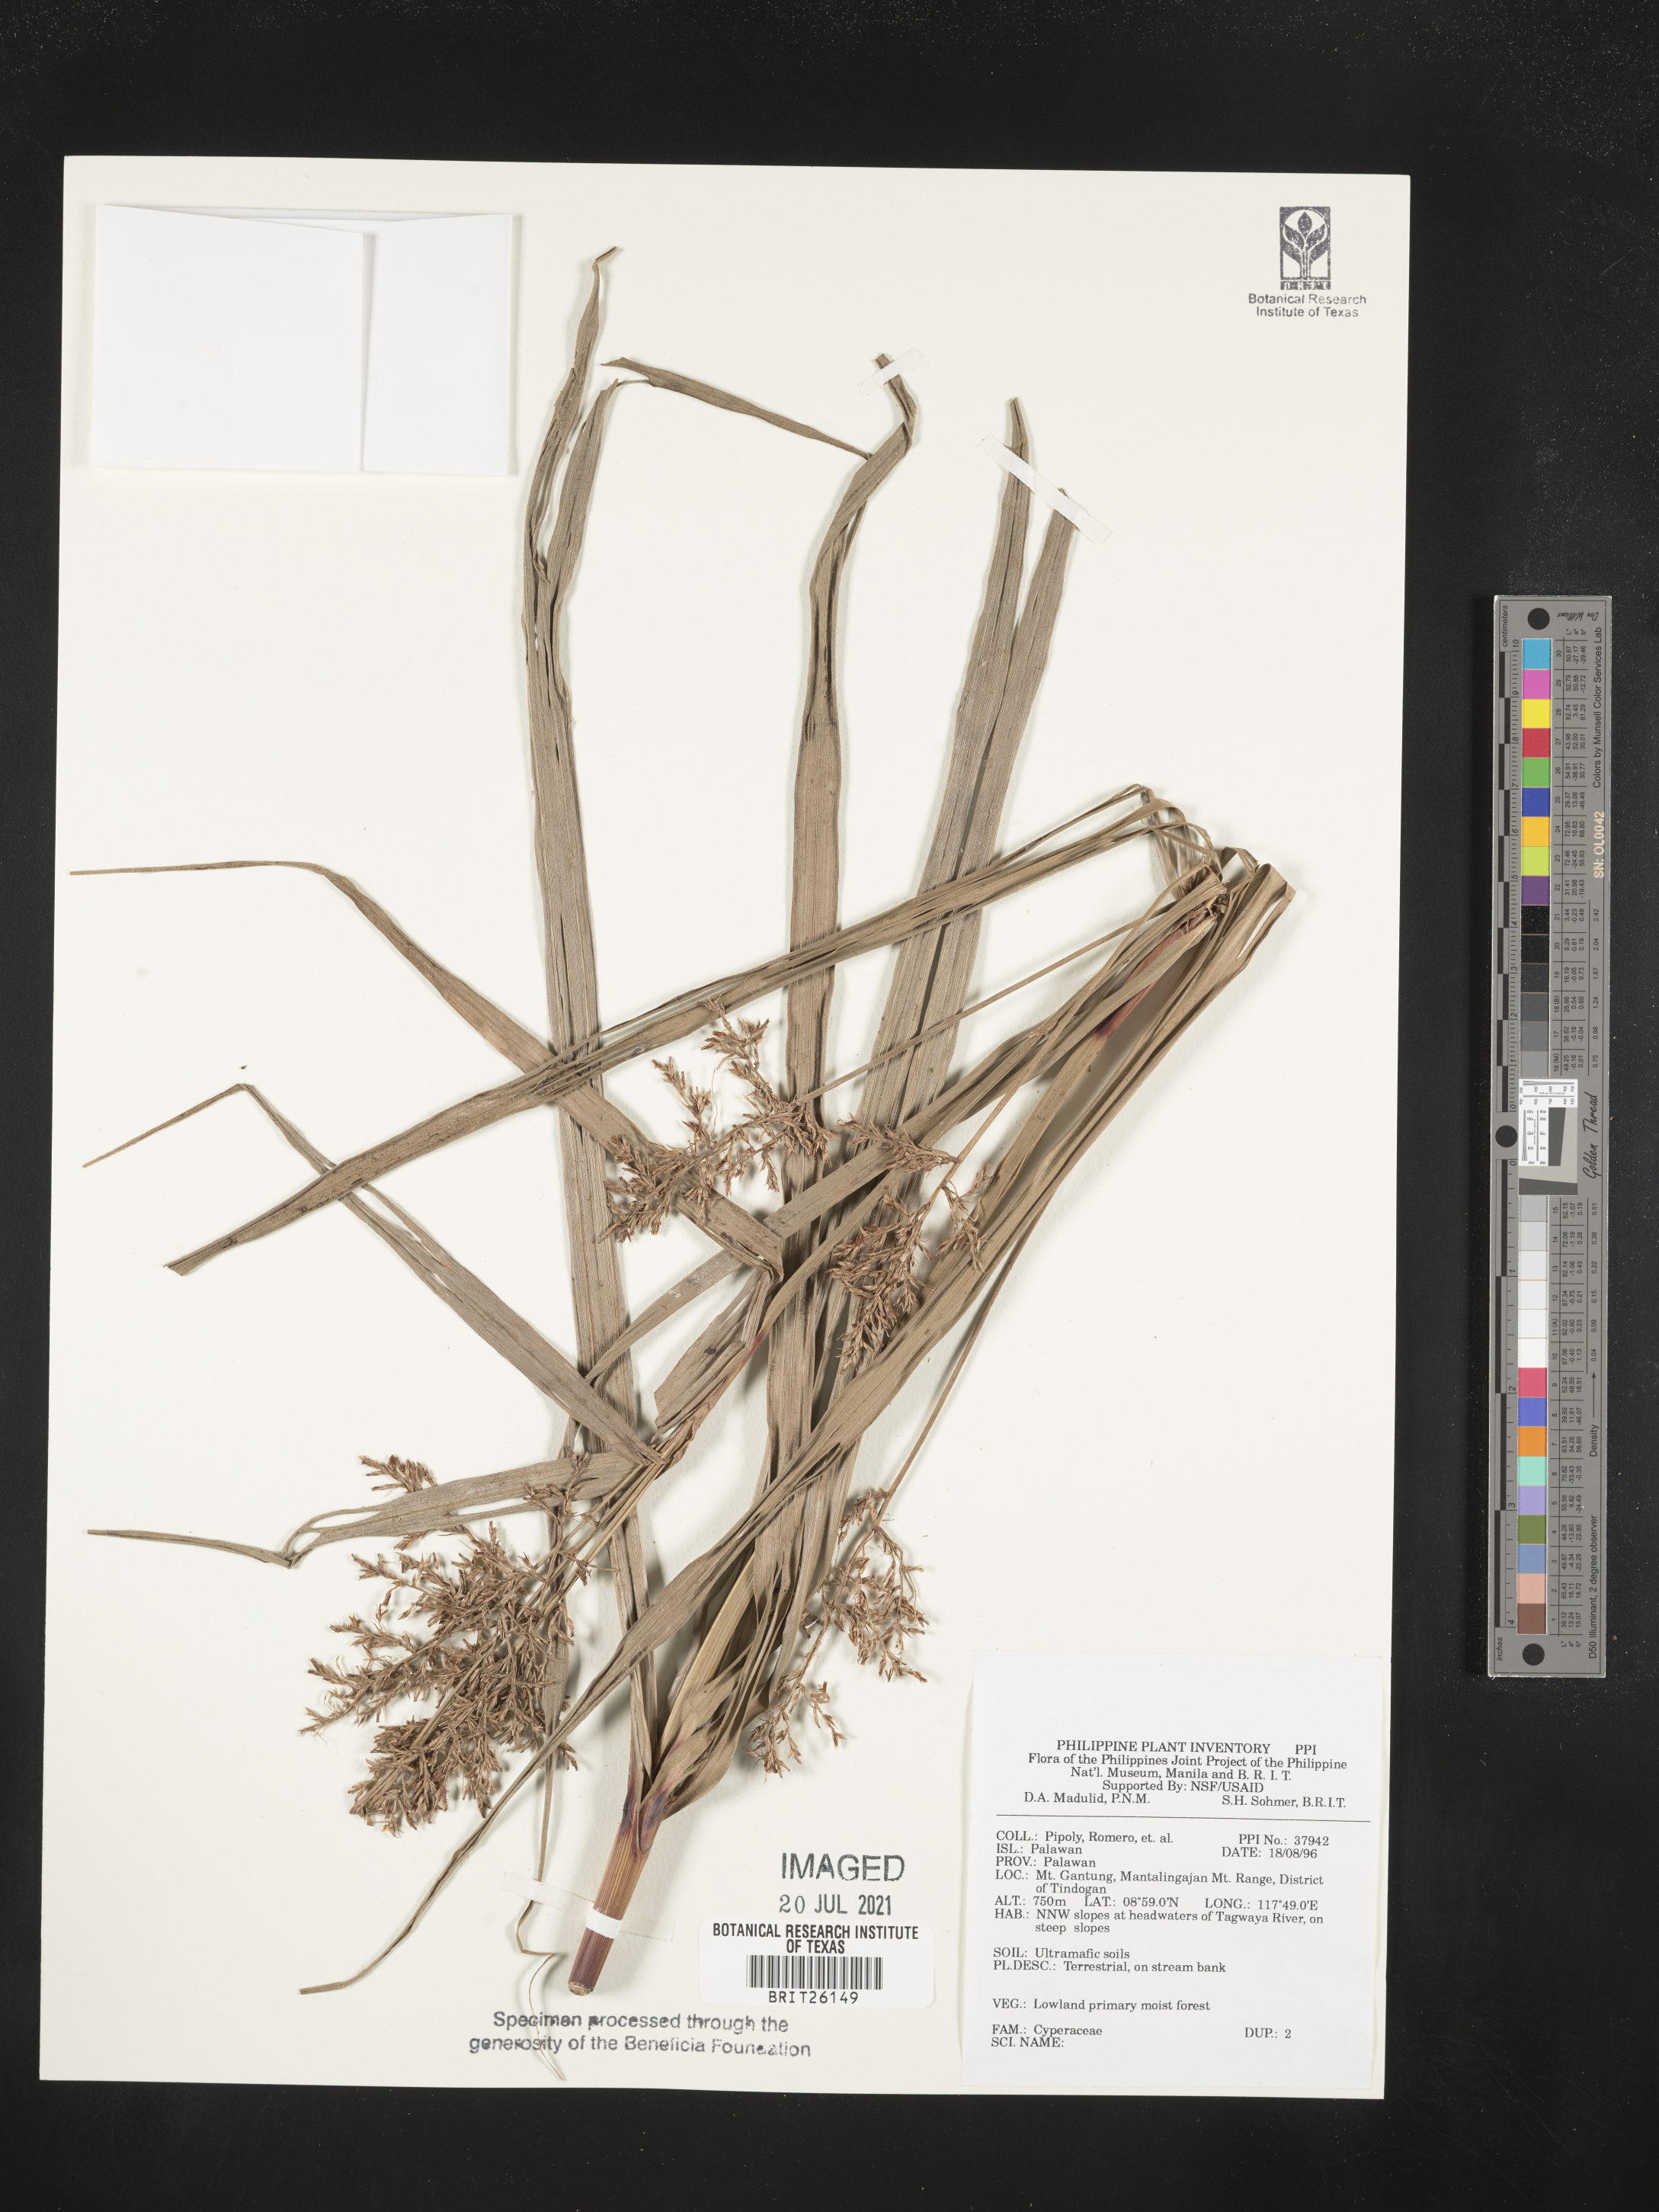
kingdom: Plantae
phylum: Tracheophyta
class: Liliopsida
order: Poales
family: Cyperaceae
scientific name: Cyperaceae
